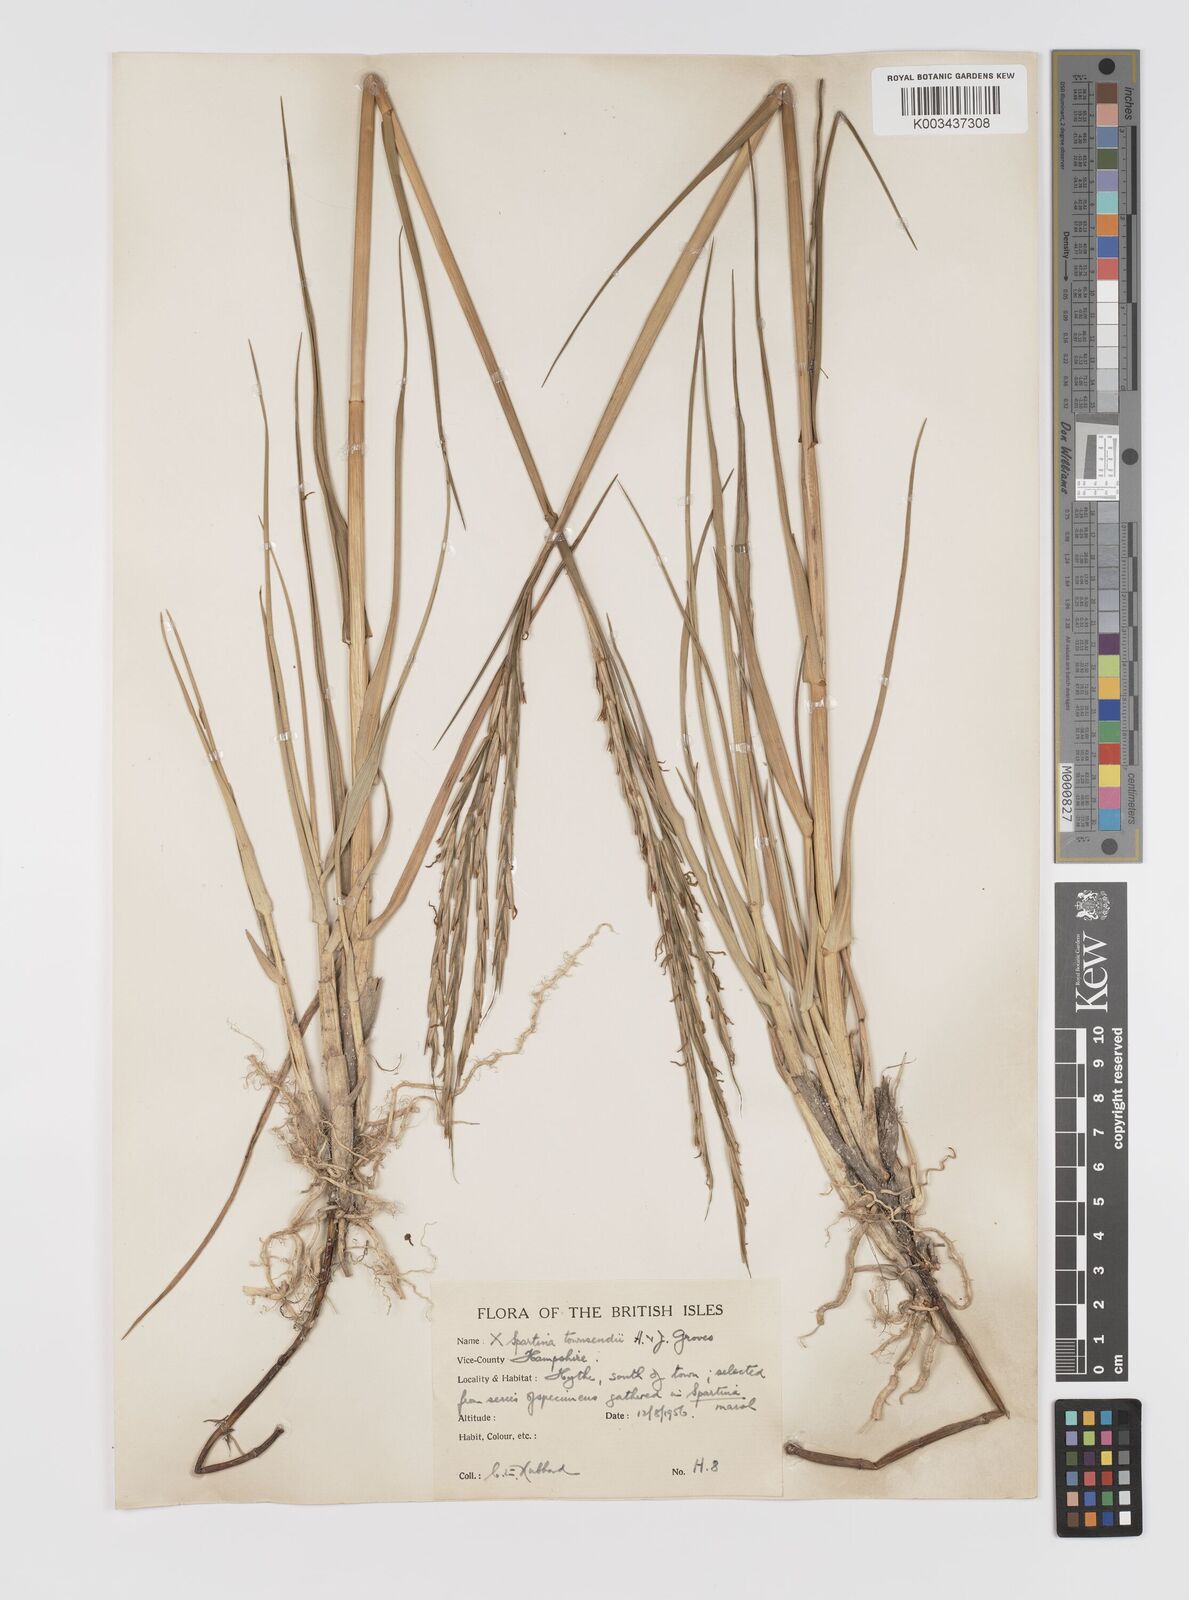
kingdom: Plantae
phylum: Tracheophyta
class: Liliopsida
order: Poales
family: Poaceae
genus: Sporobolus
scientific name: Sporobolus townsendii
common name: Townsend's cordgrass
